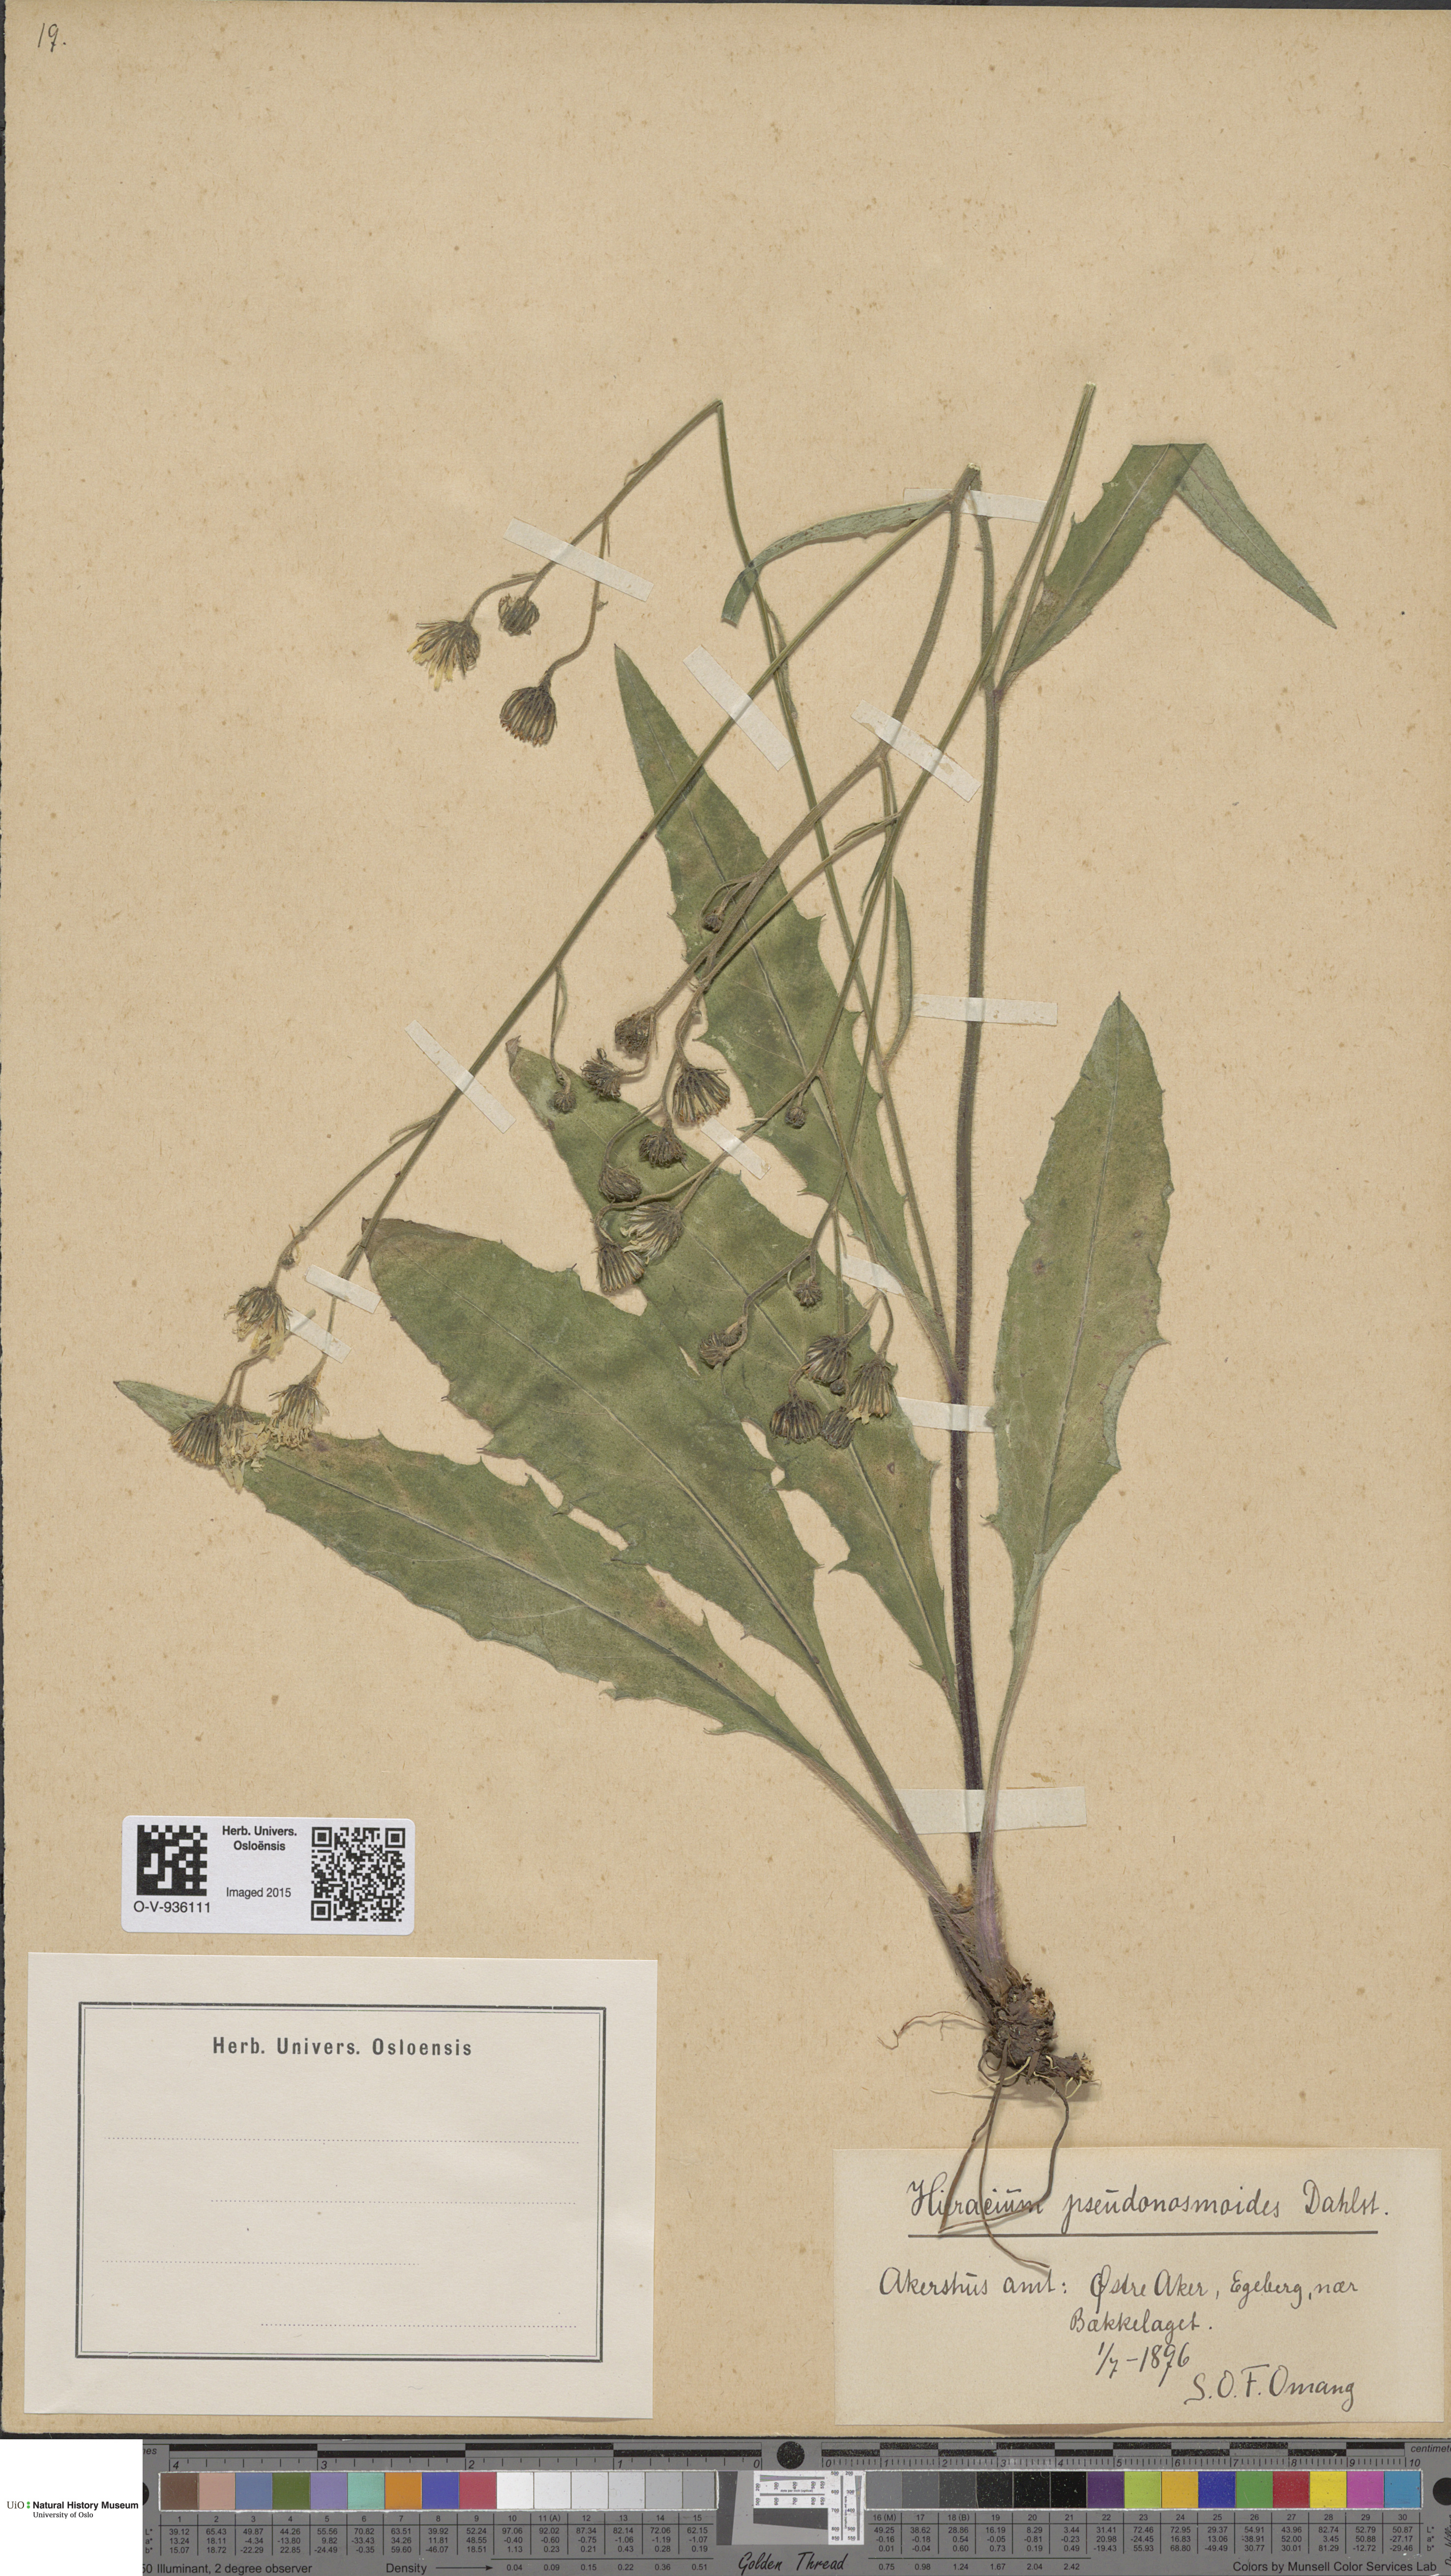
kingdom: Plantae
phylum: Tracheophyta
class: Magnoliopsida
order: Asterales
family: Asteraceae
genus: Hieracium
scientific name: Hieracium saxifragum
